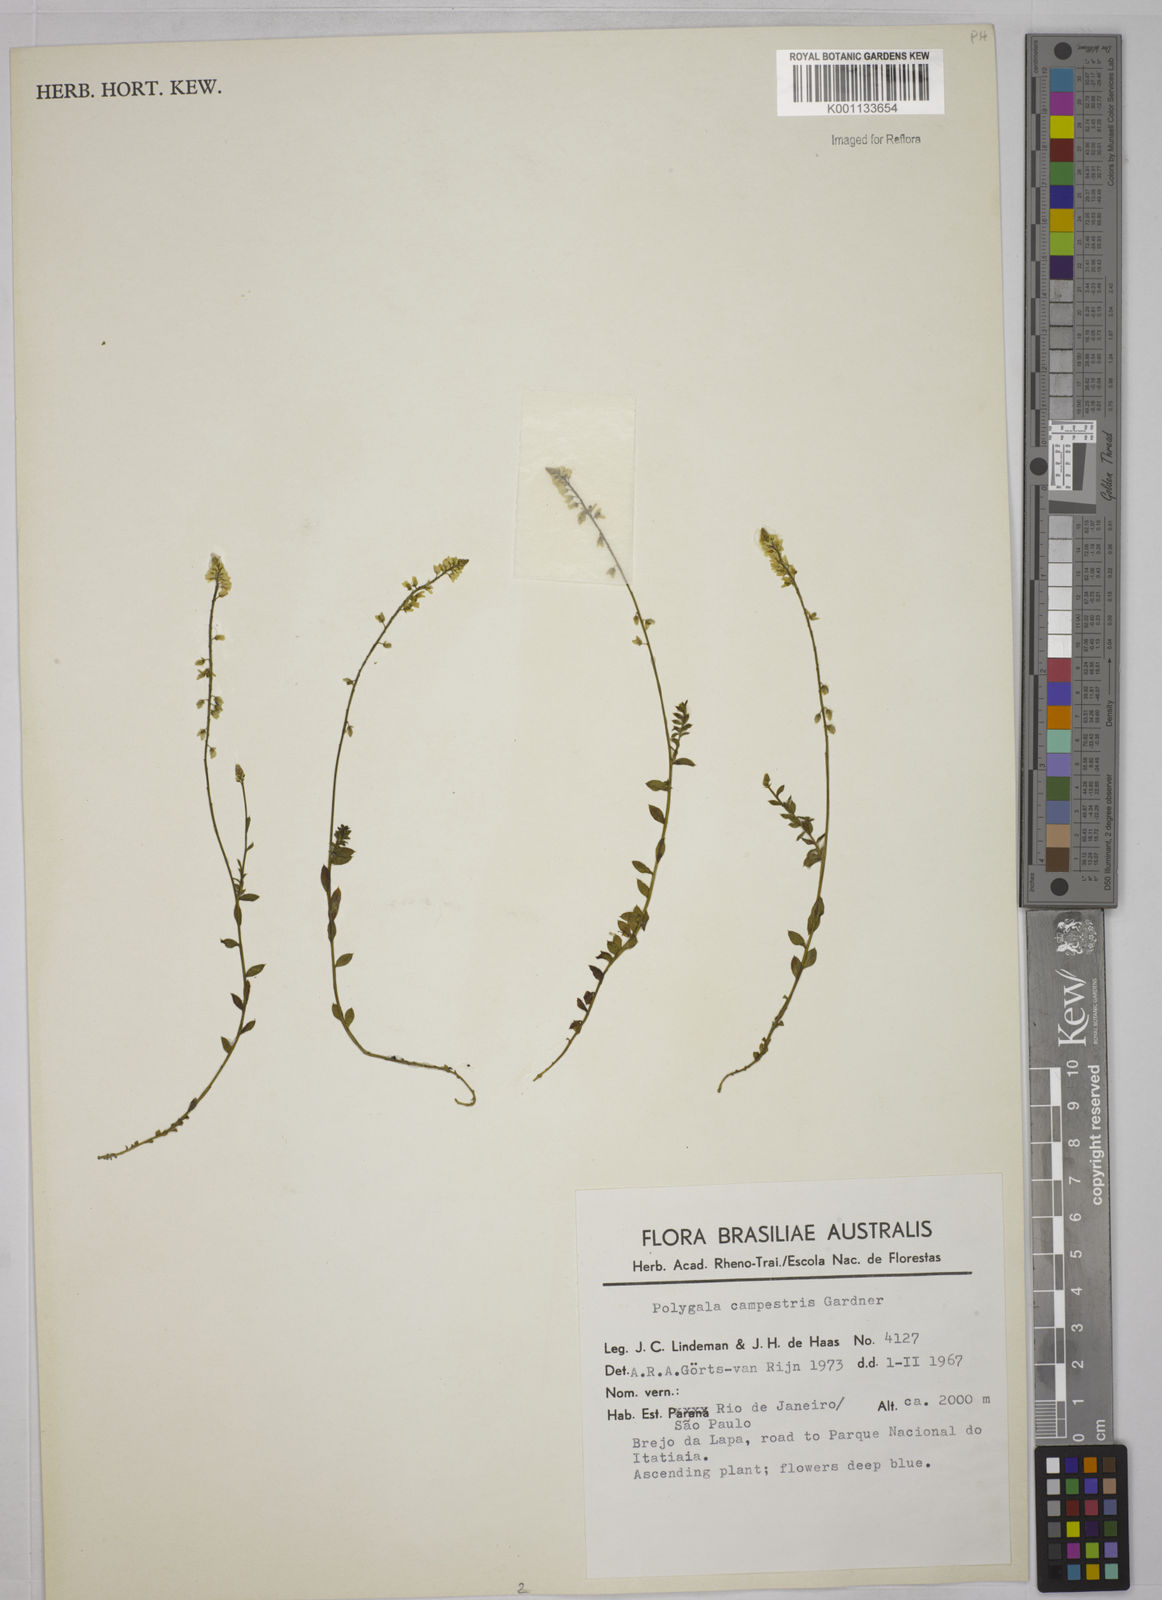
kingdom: Plantae
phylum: Tracheophyta
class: Magnoliopsida
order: Fabales
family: Polygalaceae
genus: Polygala
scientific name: Polygala campestris
